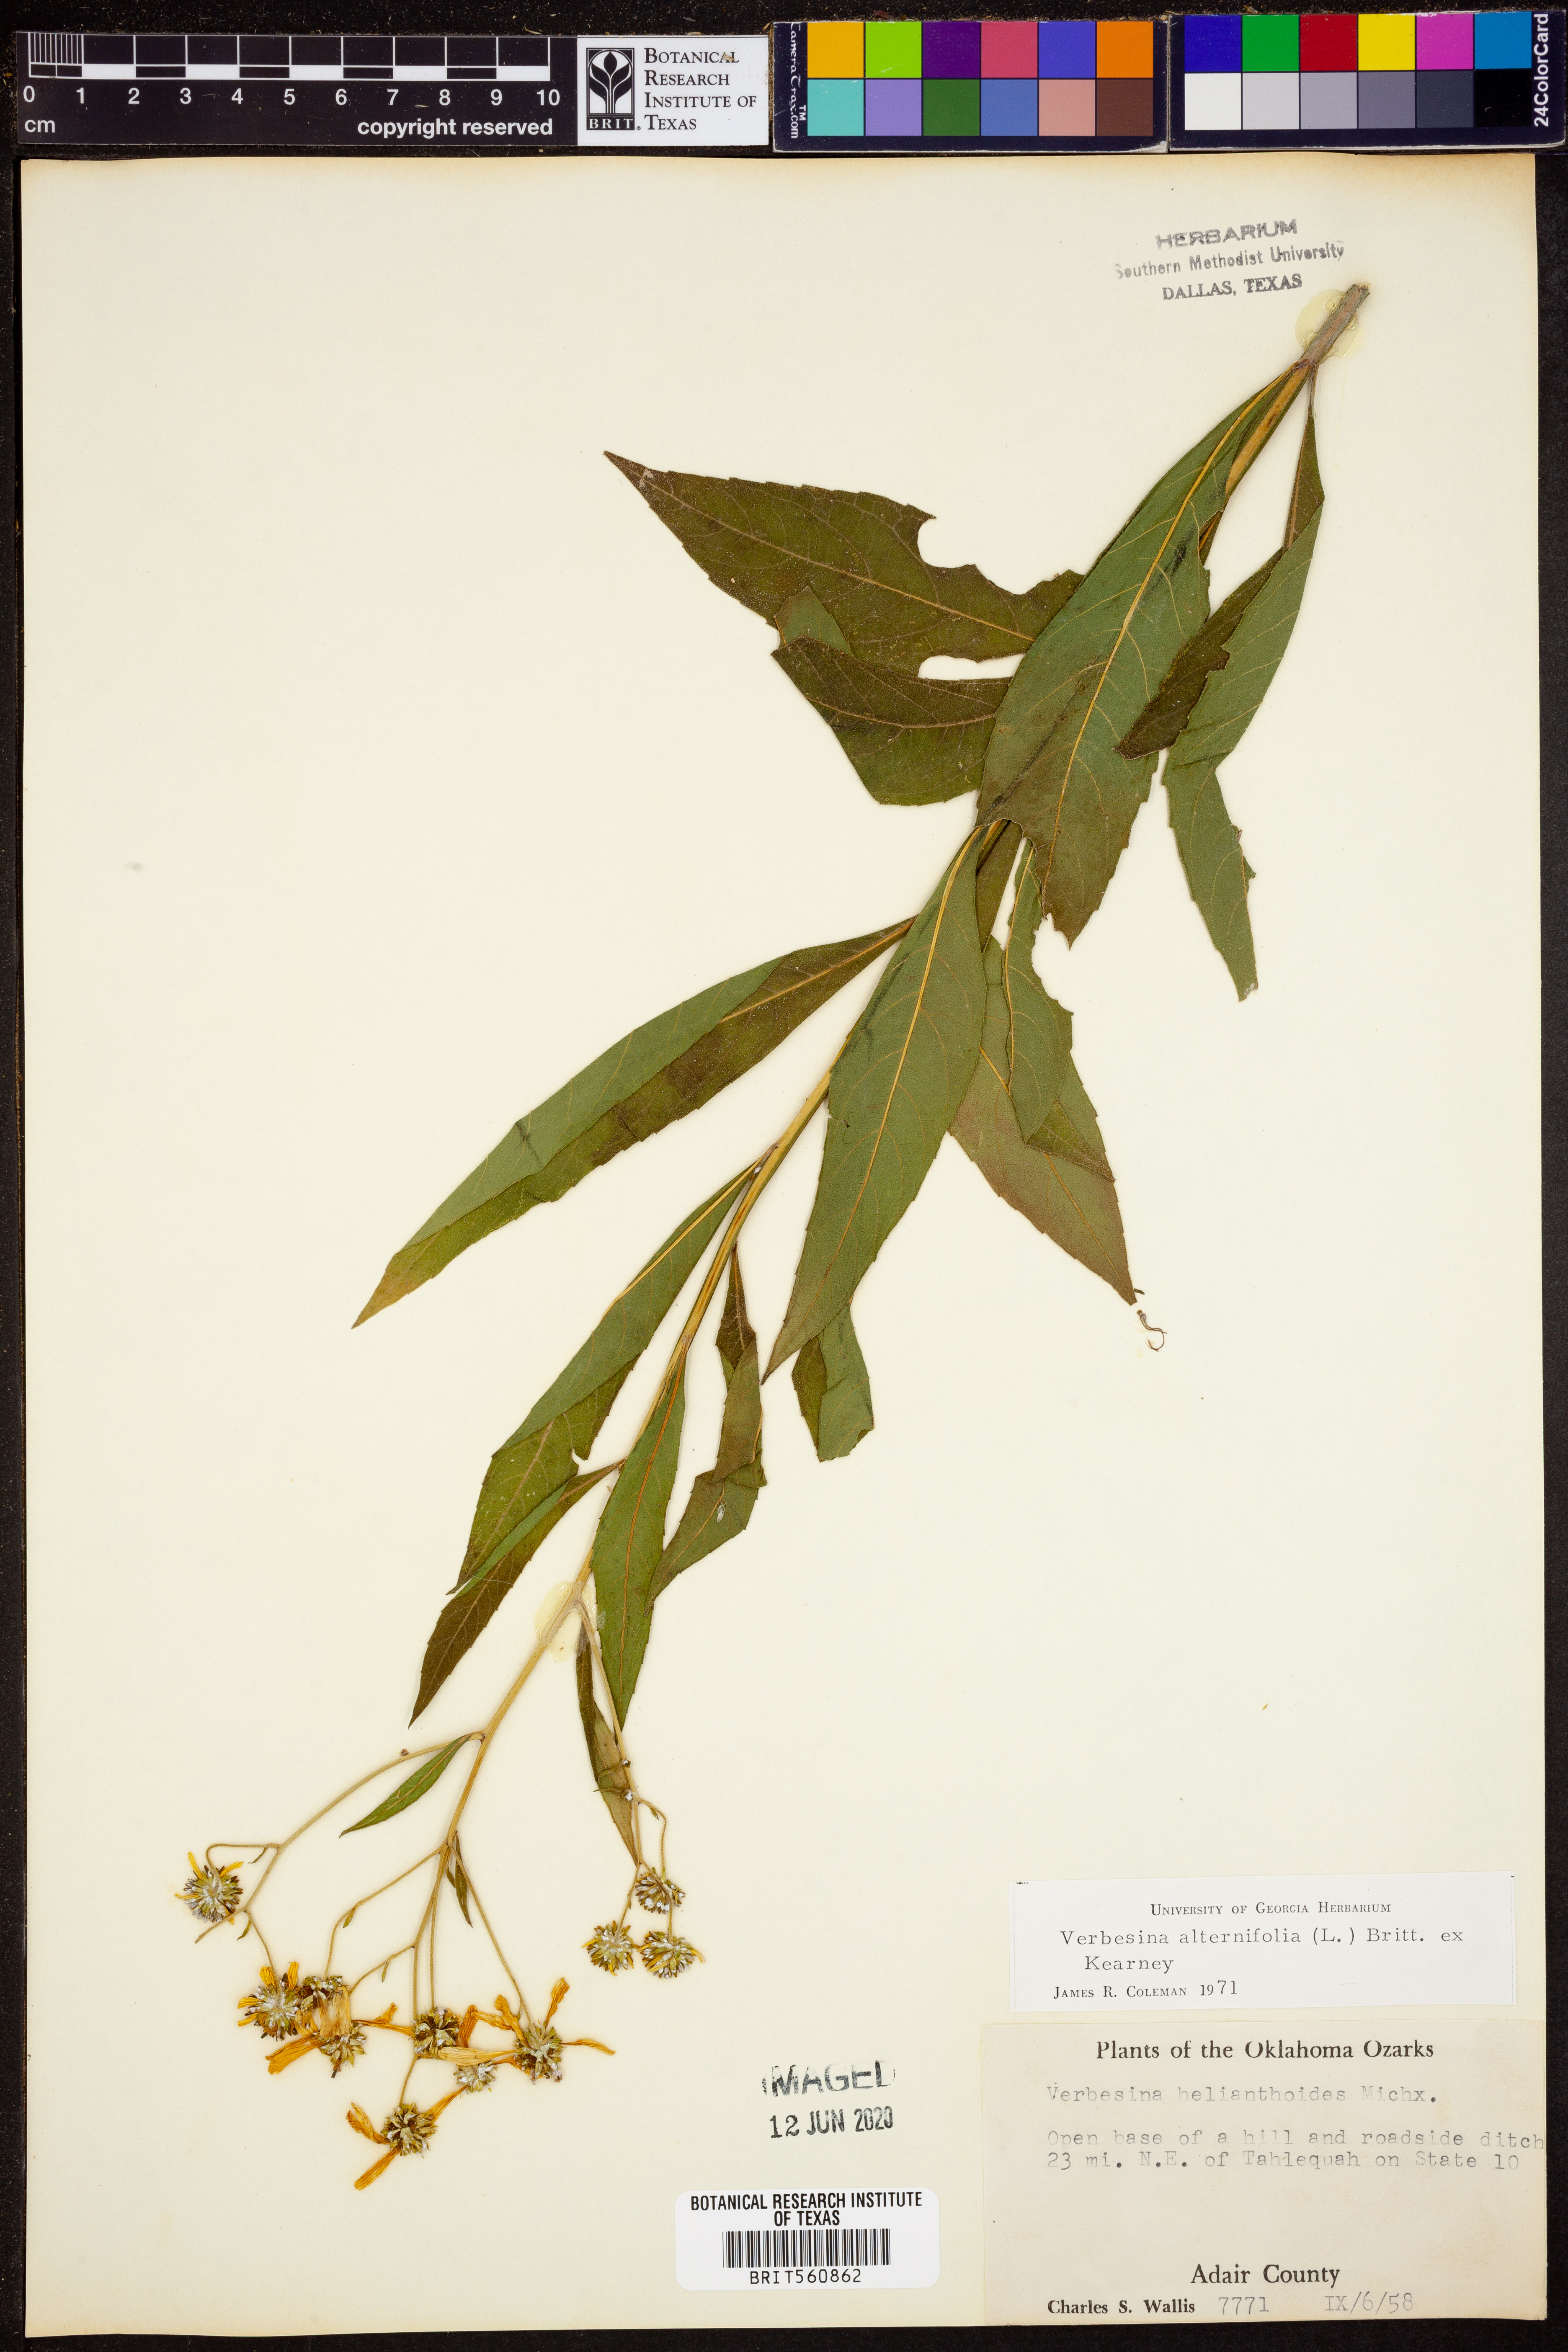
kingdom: Plantae
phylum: Tracheophyta
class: Magnoliopsida
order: Asterales
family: Asteraceae
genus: Verbesina
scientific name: Verbesina alternifolia
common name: Wingstem
